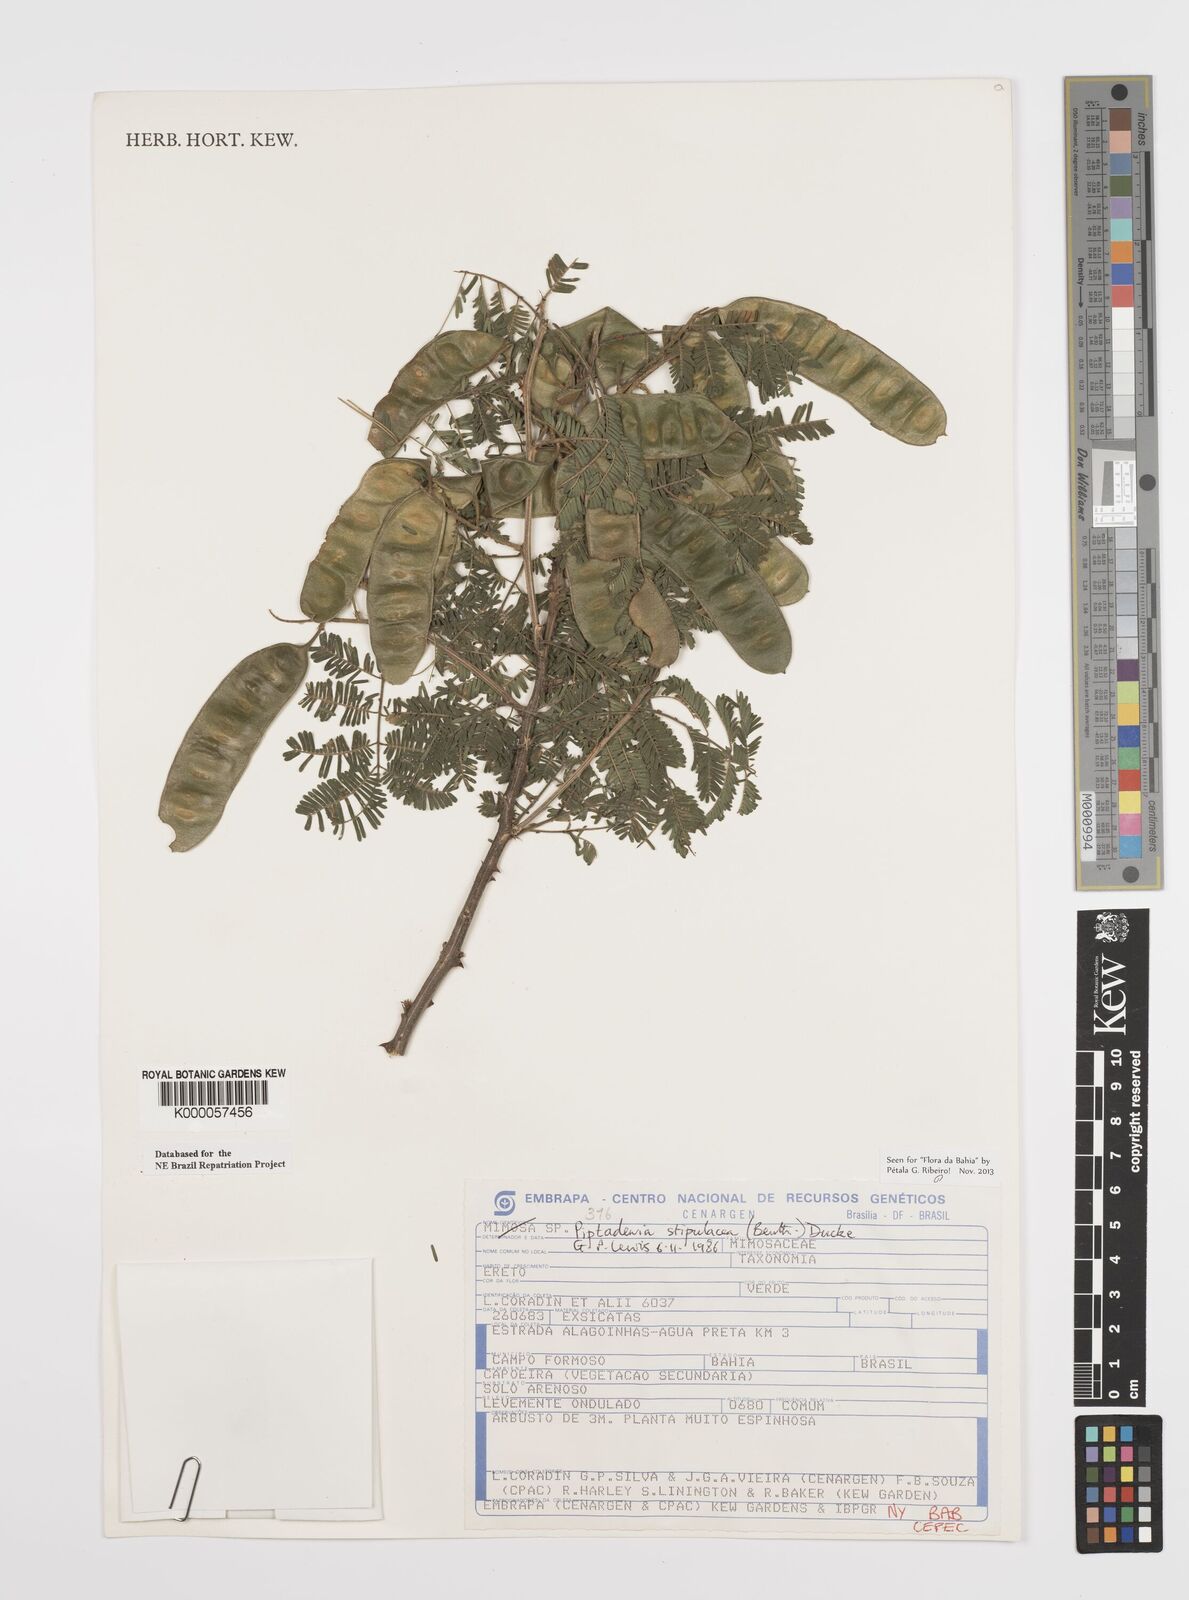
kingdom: Plantae
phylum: Tracheophyta
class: Magnoliopsida
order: Fabales
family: Fabaceae
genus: Piptadenia
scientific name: Piptadenia retusa
